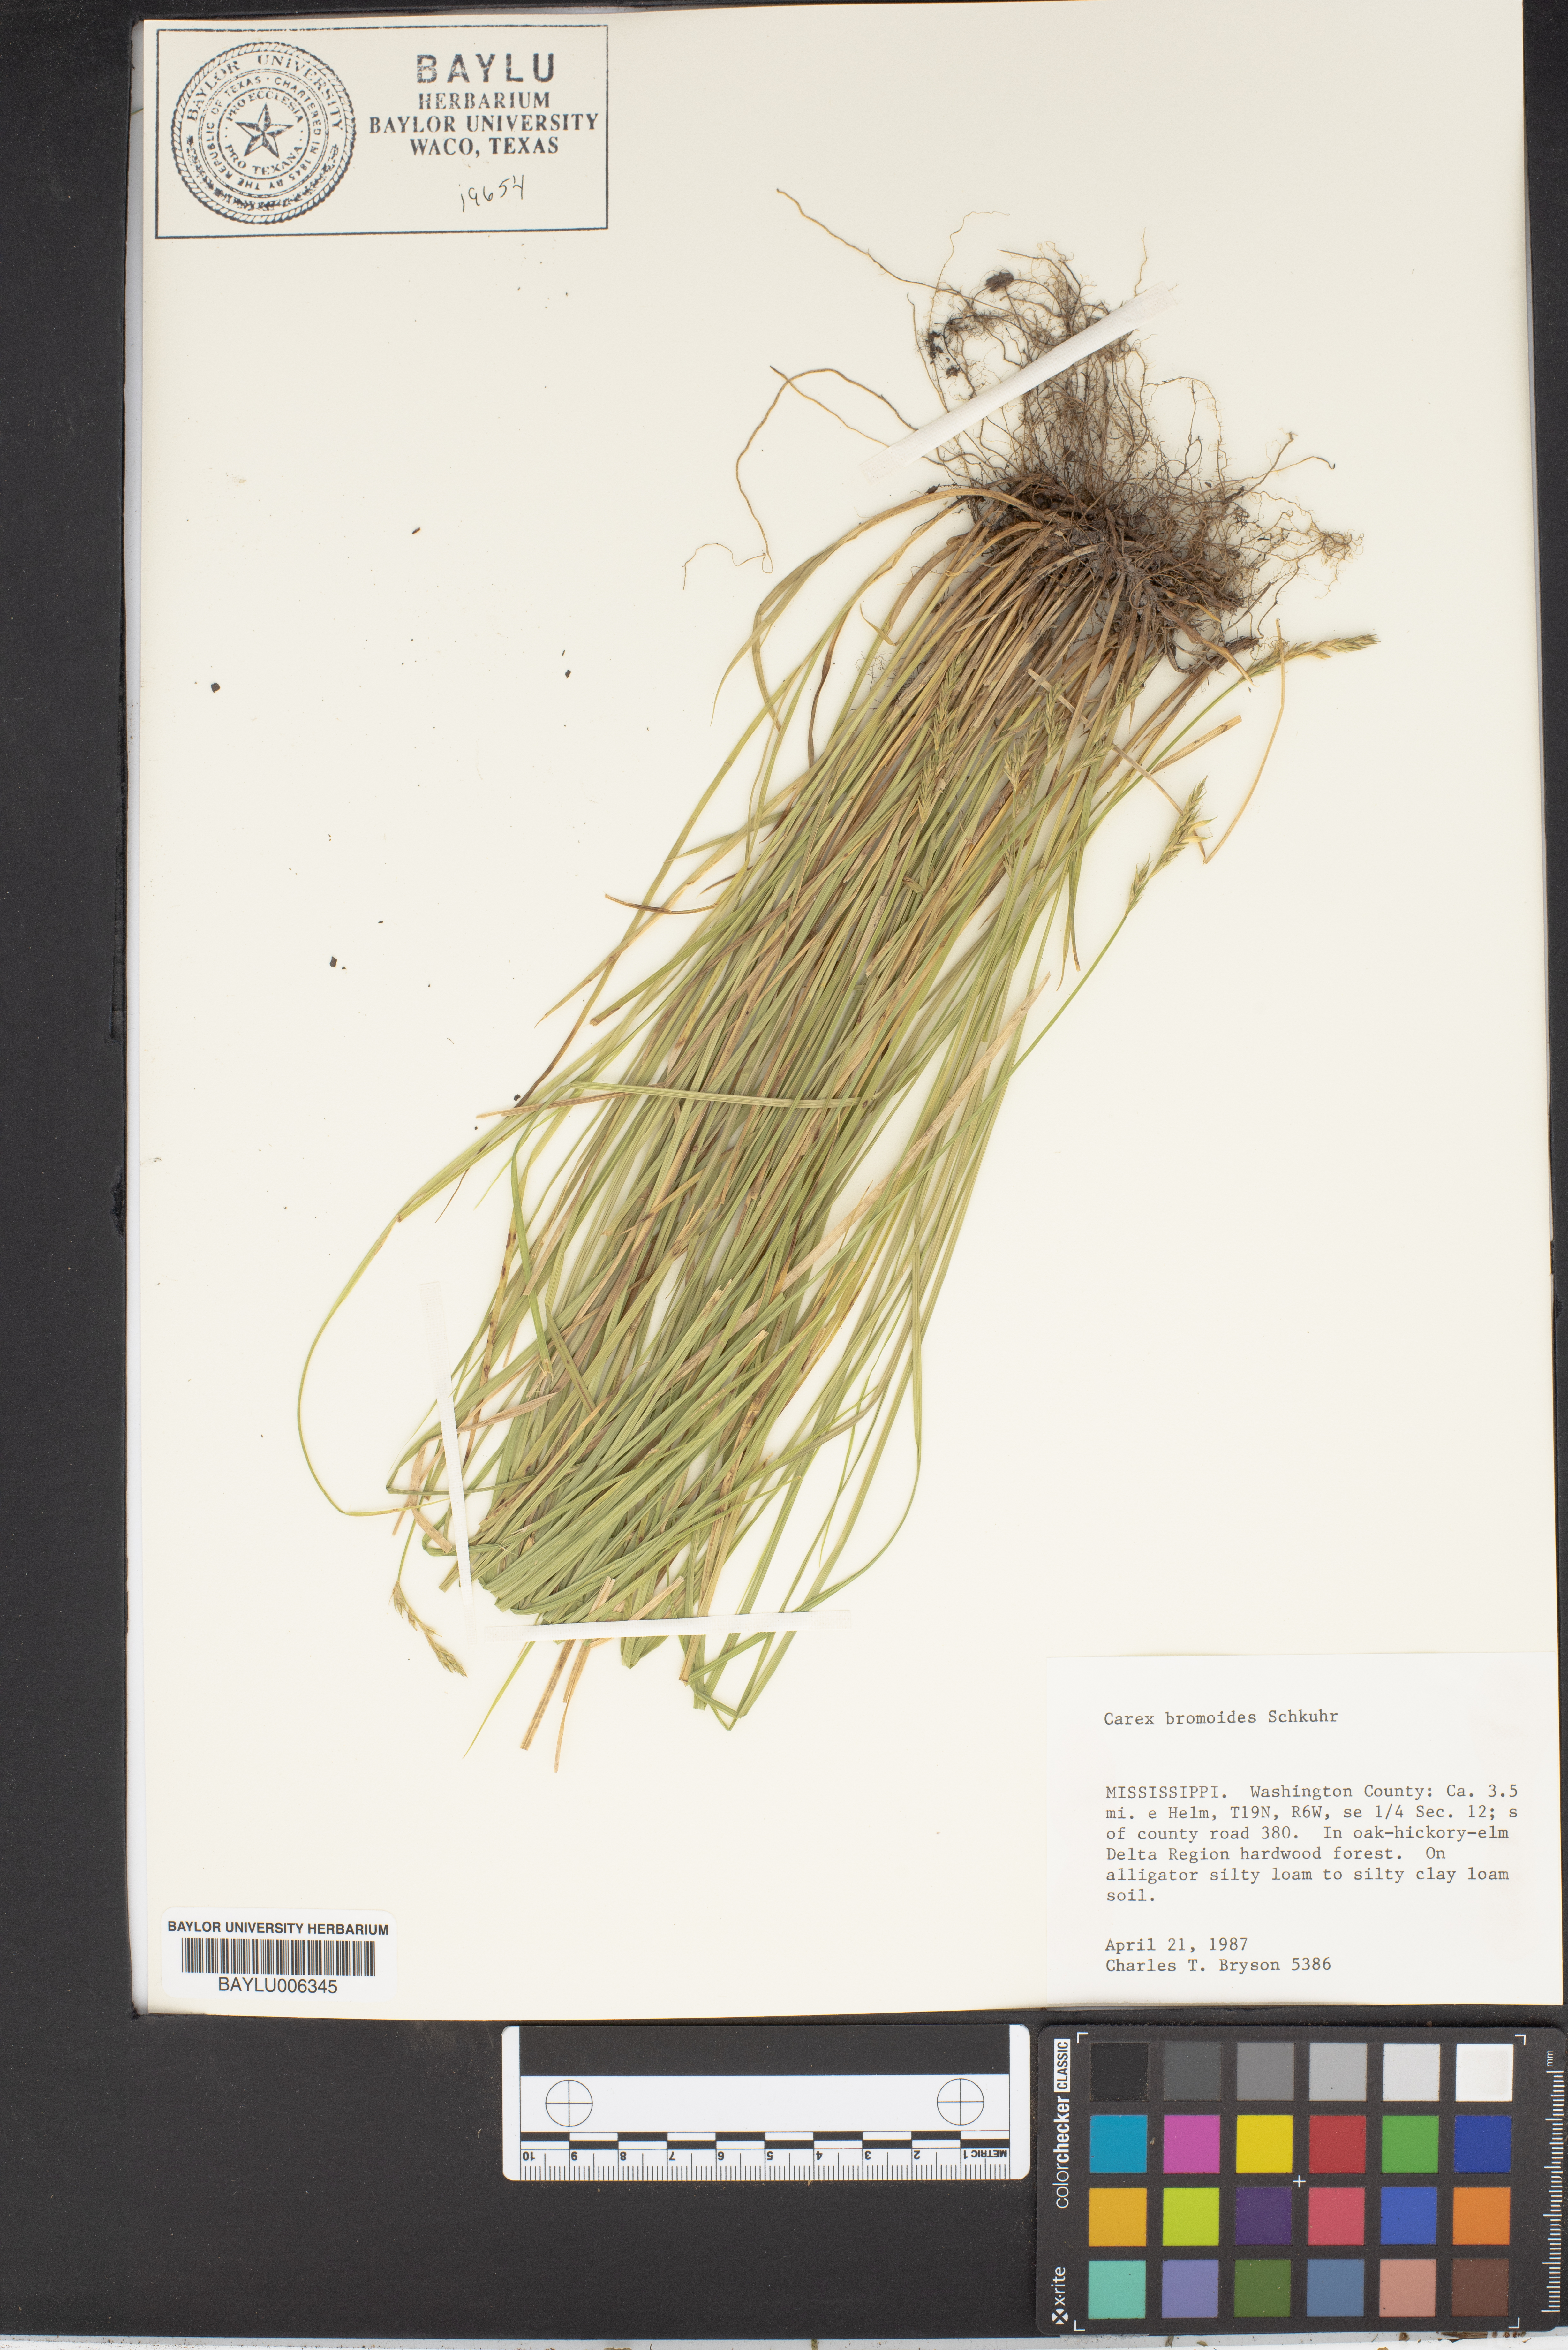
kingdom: Plantae
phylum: Tracheophyta
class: Liliopsida
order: Poales
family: Cyperaceae
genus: Carex
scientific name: Carex bromoides
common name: Brome hummock sedge
